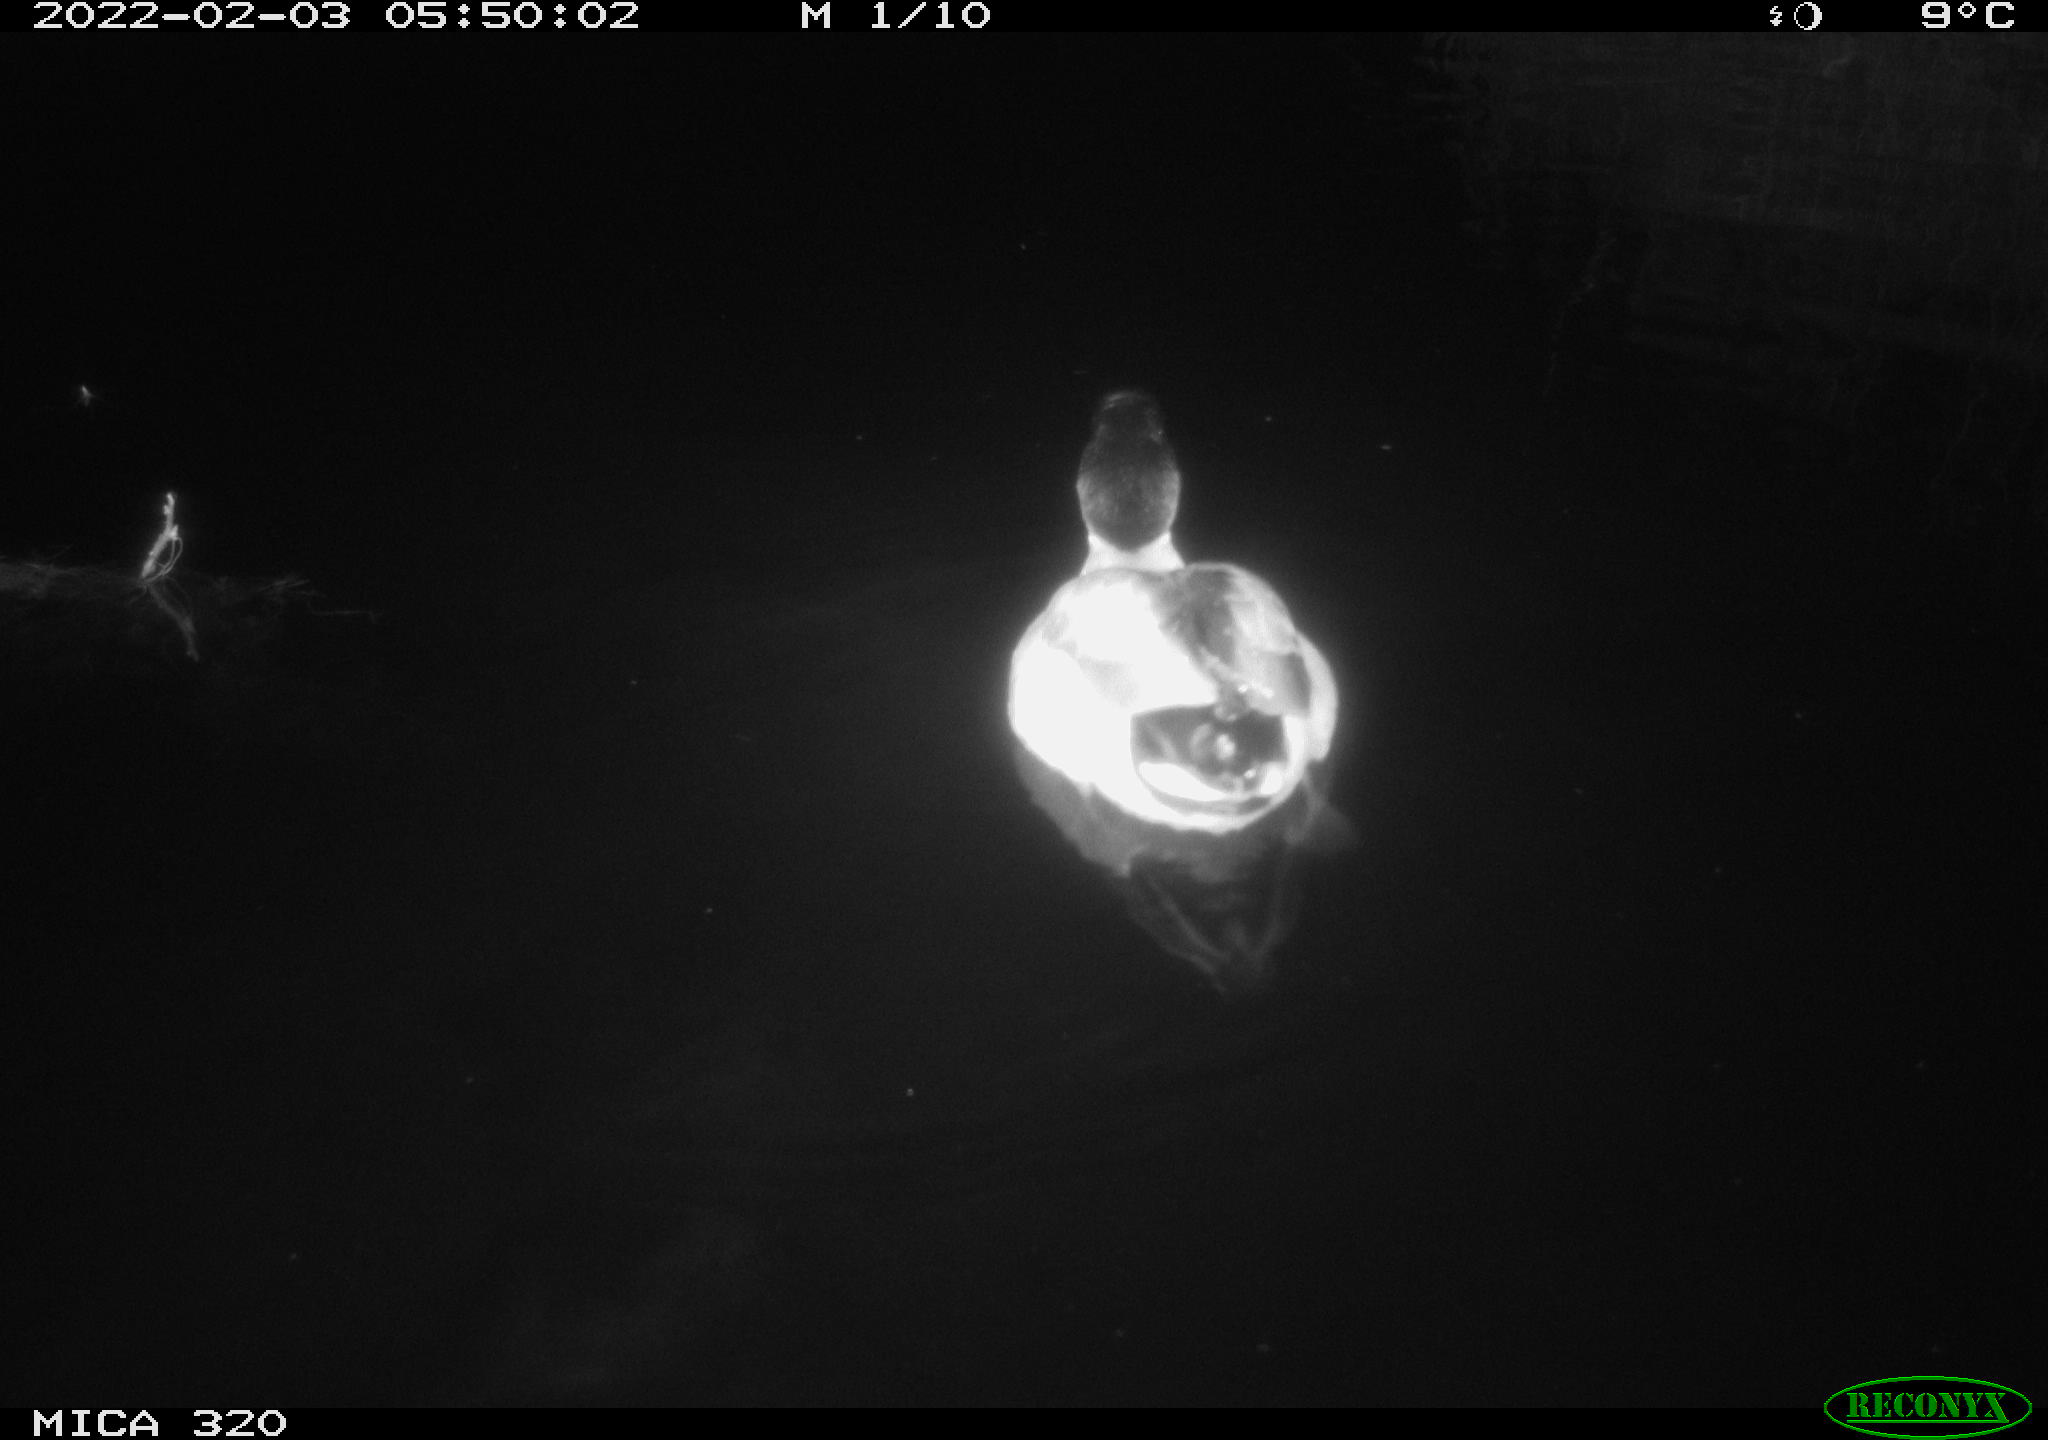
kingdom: Animalia
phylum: Chordata
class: Aves
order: Anseriformes
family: Anatidae
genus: Anas
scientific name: Anas
